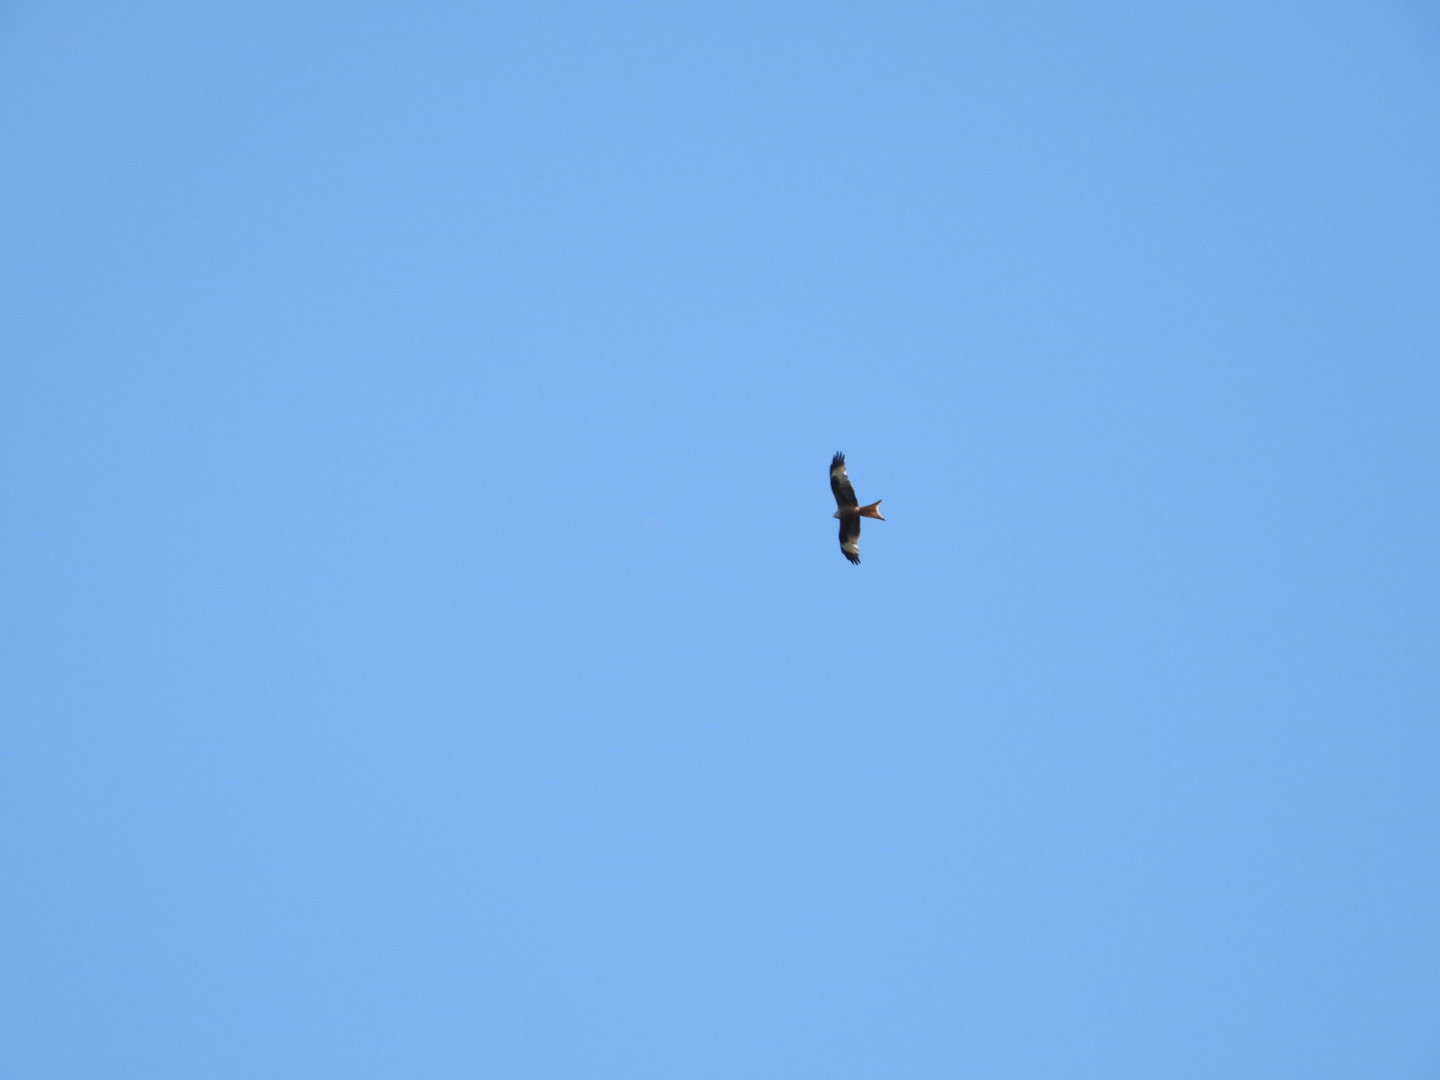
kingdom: Animalia
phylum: Chordata
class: Aves
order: Accipitriformes
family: Accipitridae
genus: Milvus
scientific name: Milvus milvus
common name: Rød glente
